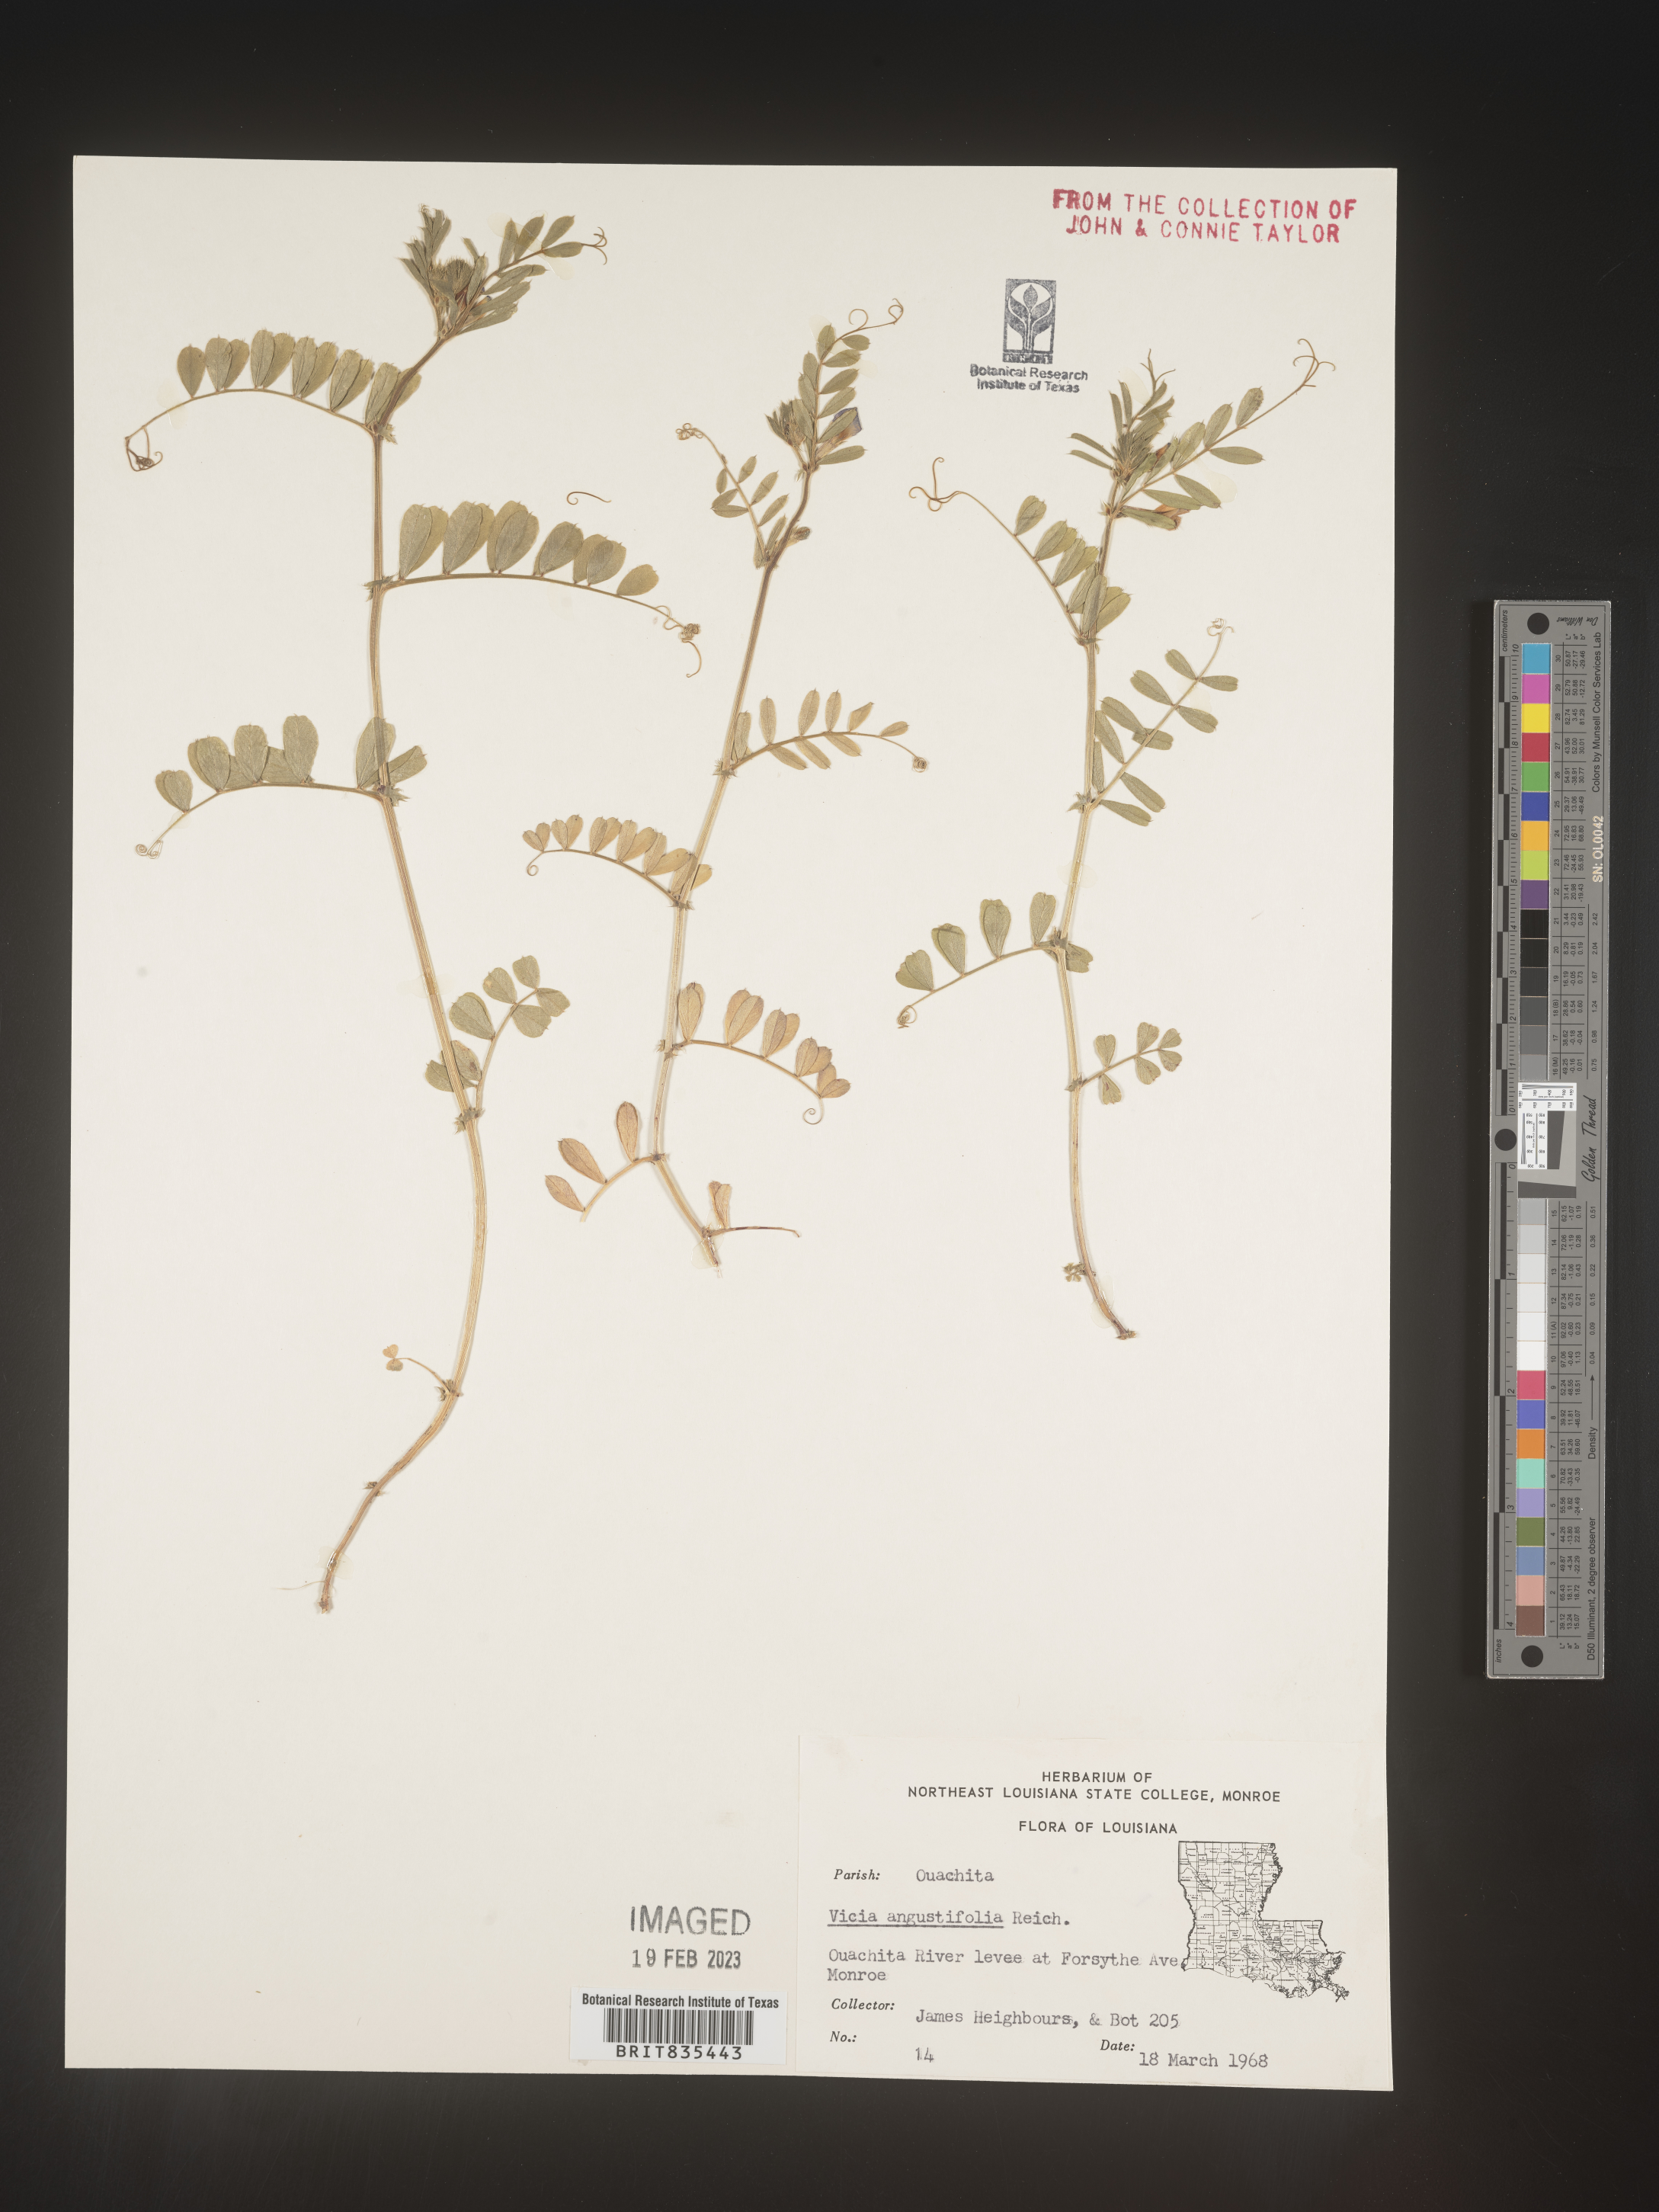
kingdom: Plantae
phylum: Tracheophyta
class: Magnoliopsida
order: Fabales
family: Fabaceae
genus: Vicia
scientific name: Vicia sativa
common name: Garden vetch
